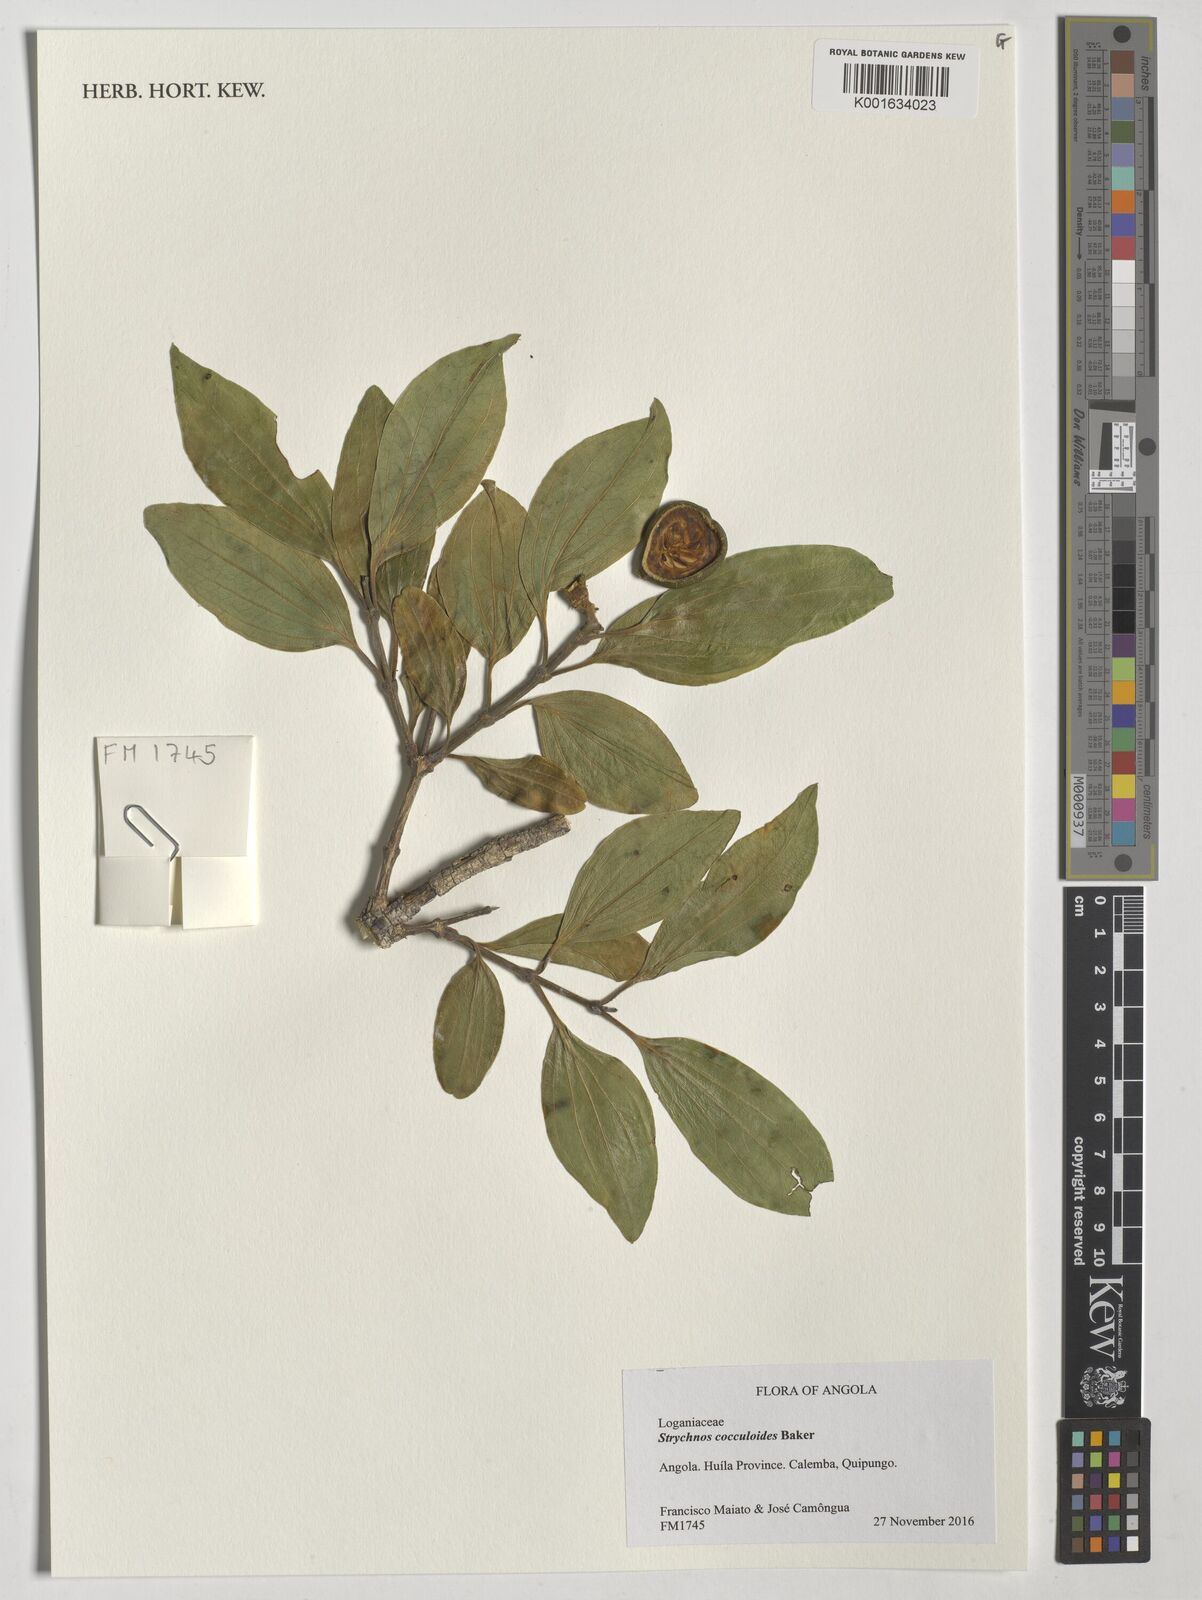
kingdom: Plantae
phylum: Tracheophyta
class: Magnoliopsida
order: Gentianales
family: Loganiaceae
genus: Strychnos
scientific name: Strychnos cocculoides
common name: Corky-bark monkey-orange
